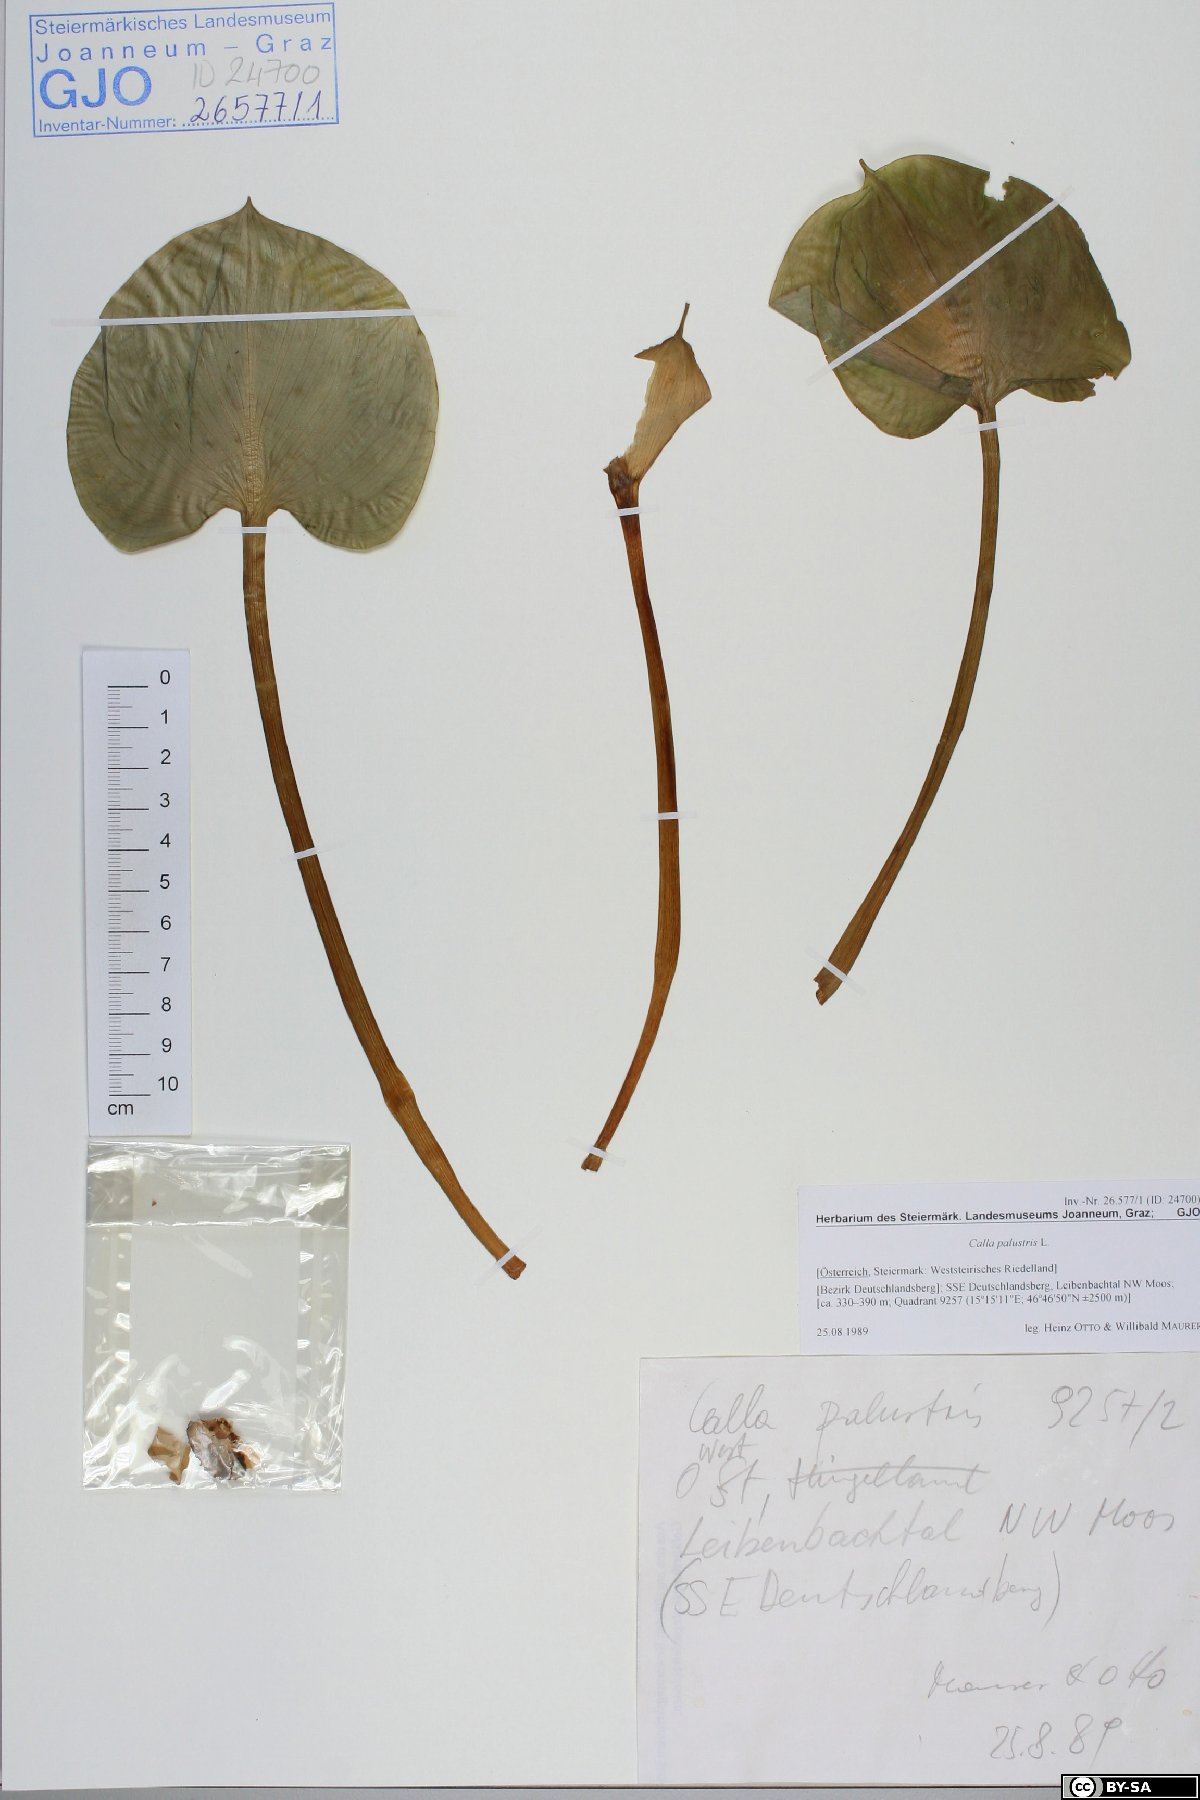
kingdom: Plantae
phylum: Tracheophyta
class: Liliopsida
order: Alismatales
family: Araceae
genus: Calla
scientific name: Calla palustris
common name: Bog arum
